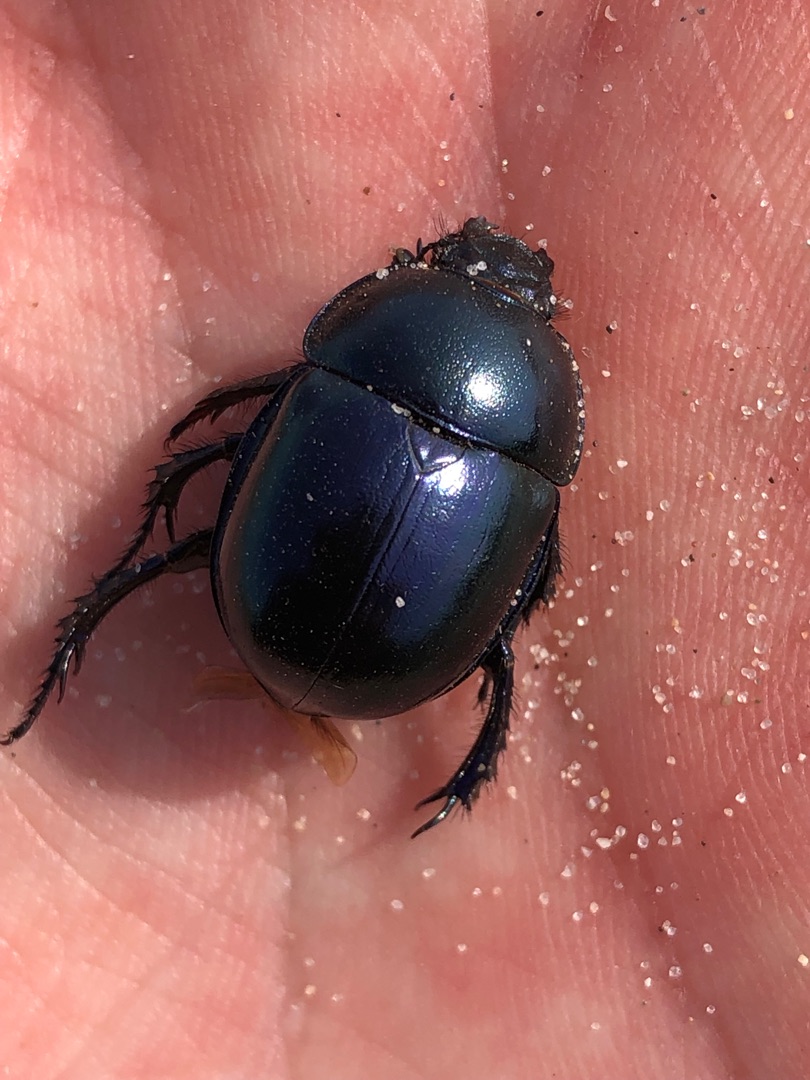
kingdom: Animalia
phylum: Arthropoda
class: Insecta
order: Coleoptera
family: Geotrupidae
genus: Trypocopris
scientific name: Trypocopris vernalis
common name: Glat skarnbasse
